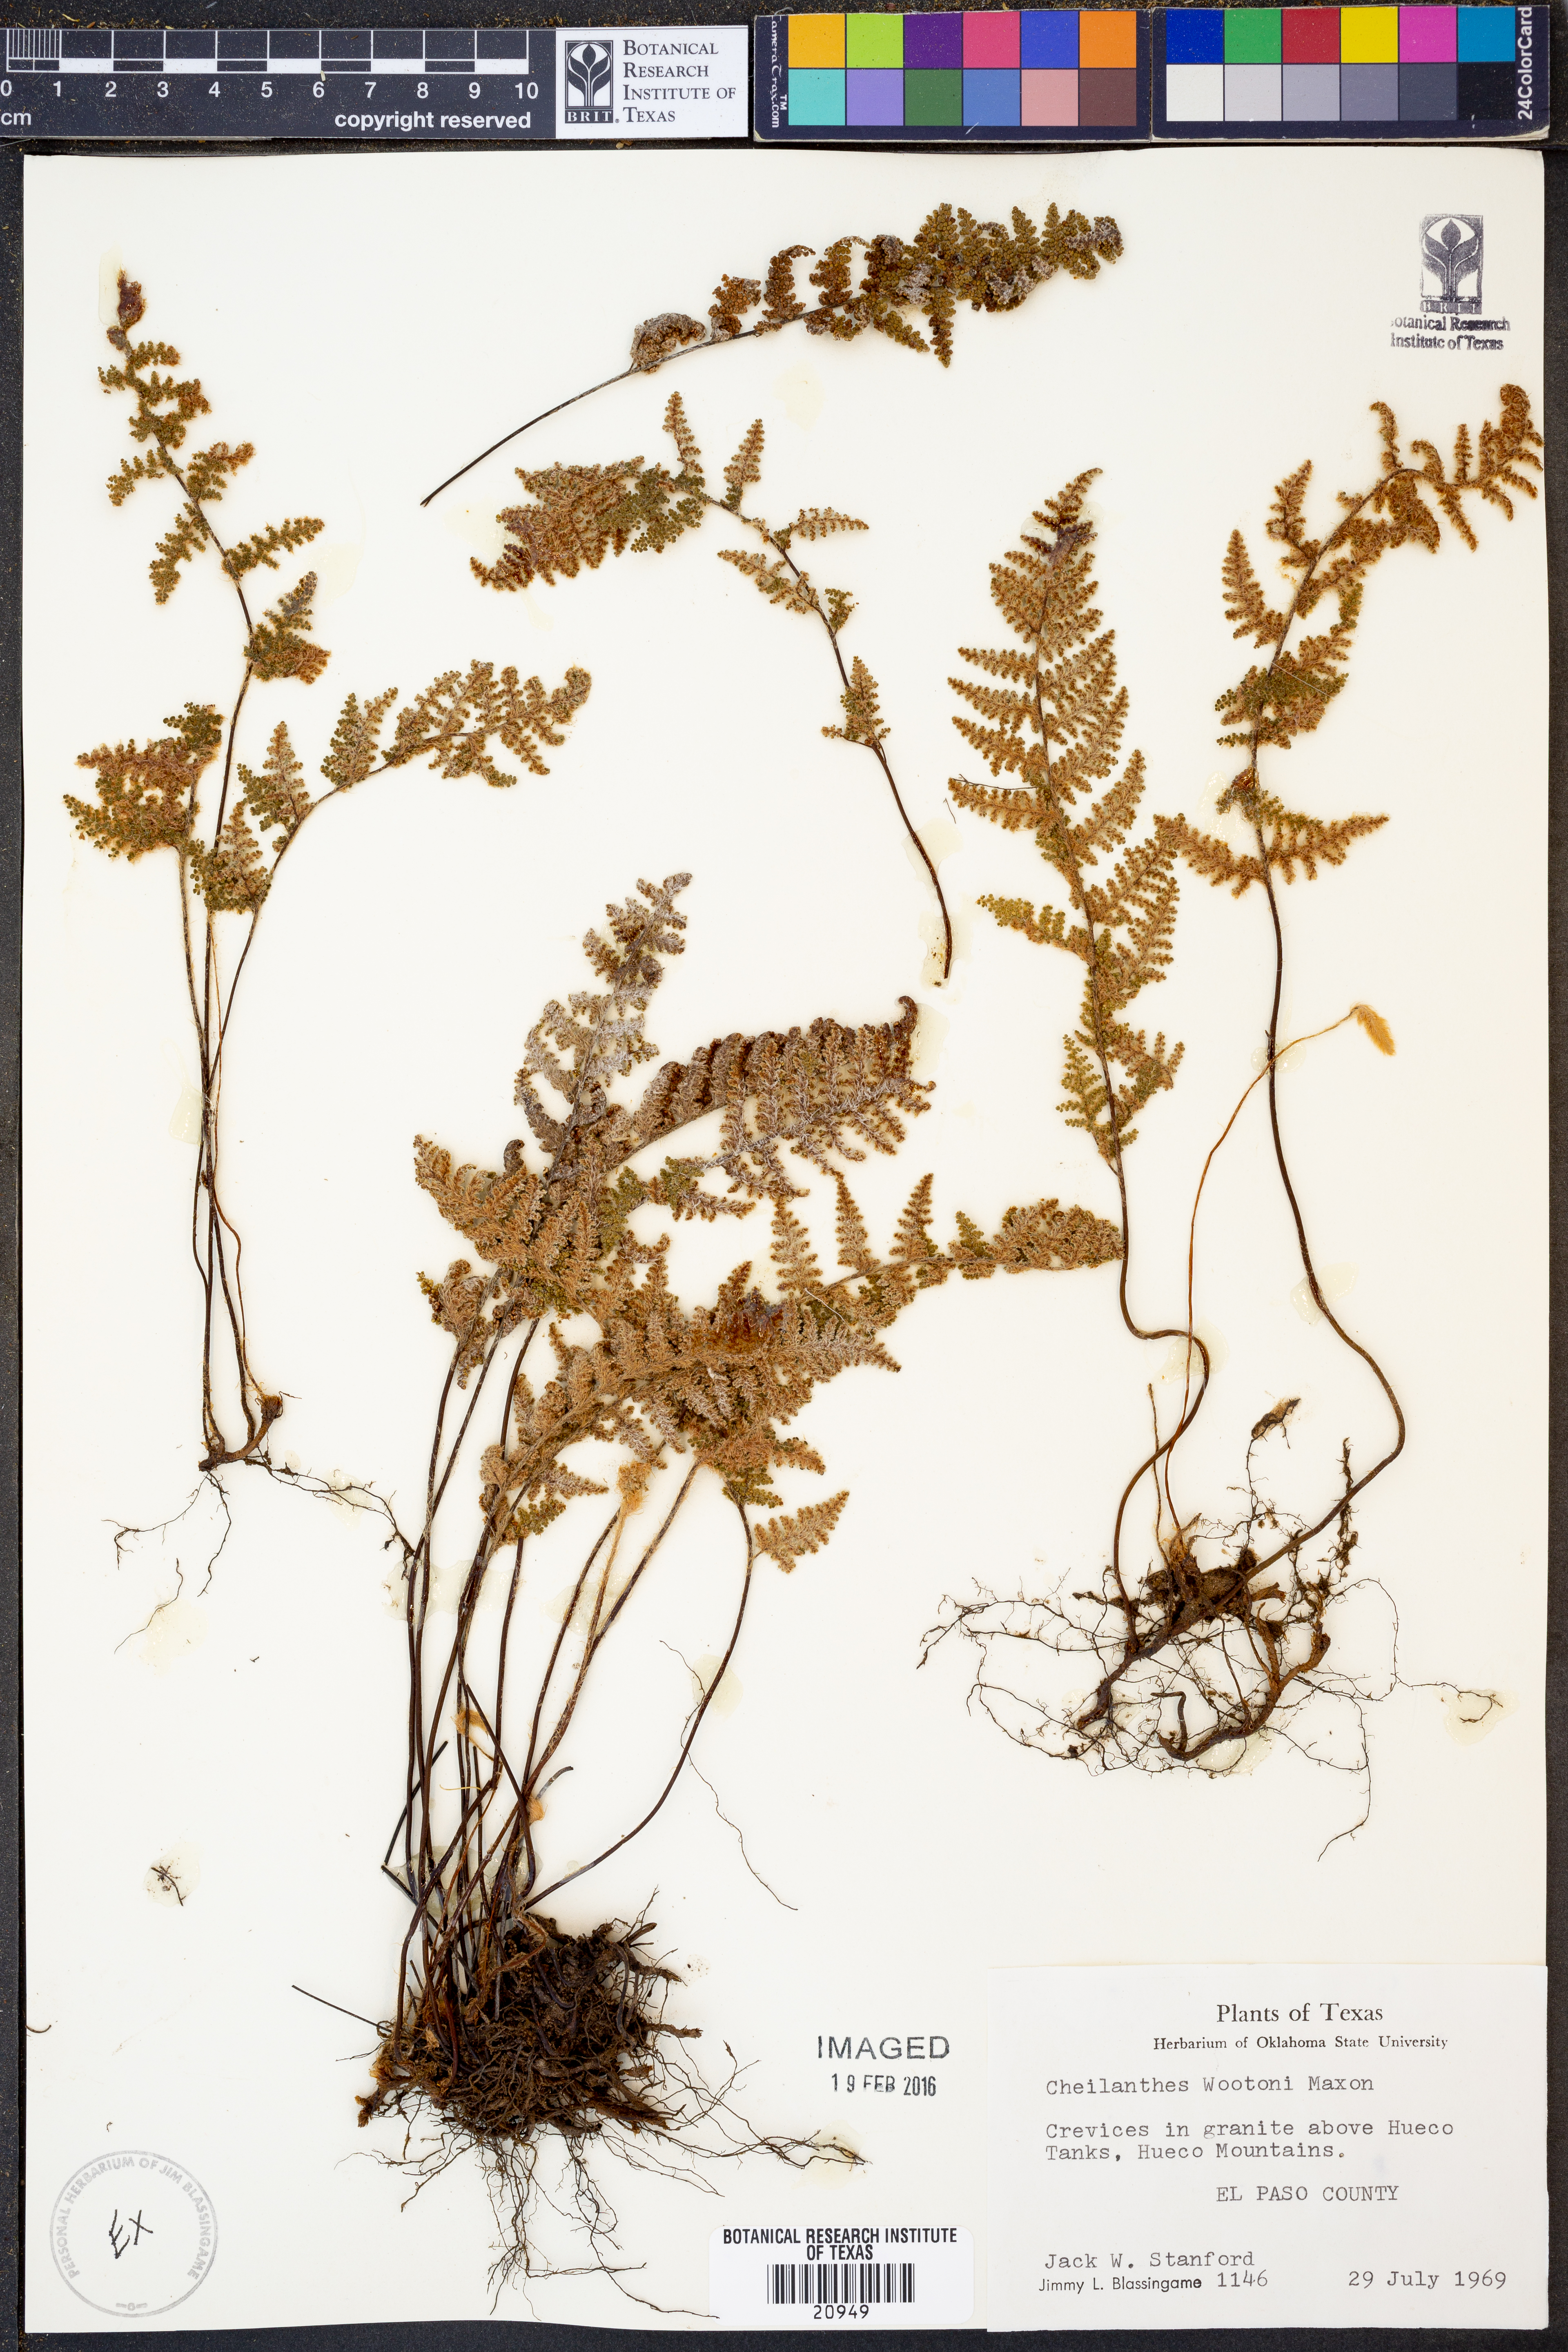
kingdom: Plantae
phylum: Tracheophyta
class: Polypodiopsida
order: Polypodiales
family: Pteridaceae
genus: Myriopteris
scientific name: Myriopteris wootonii
